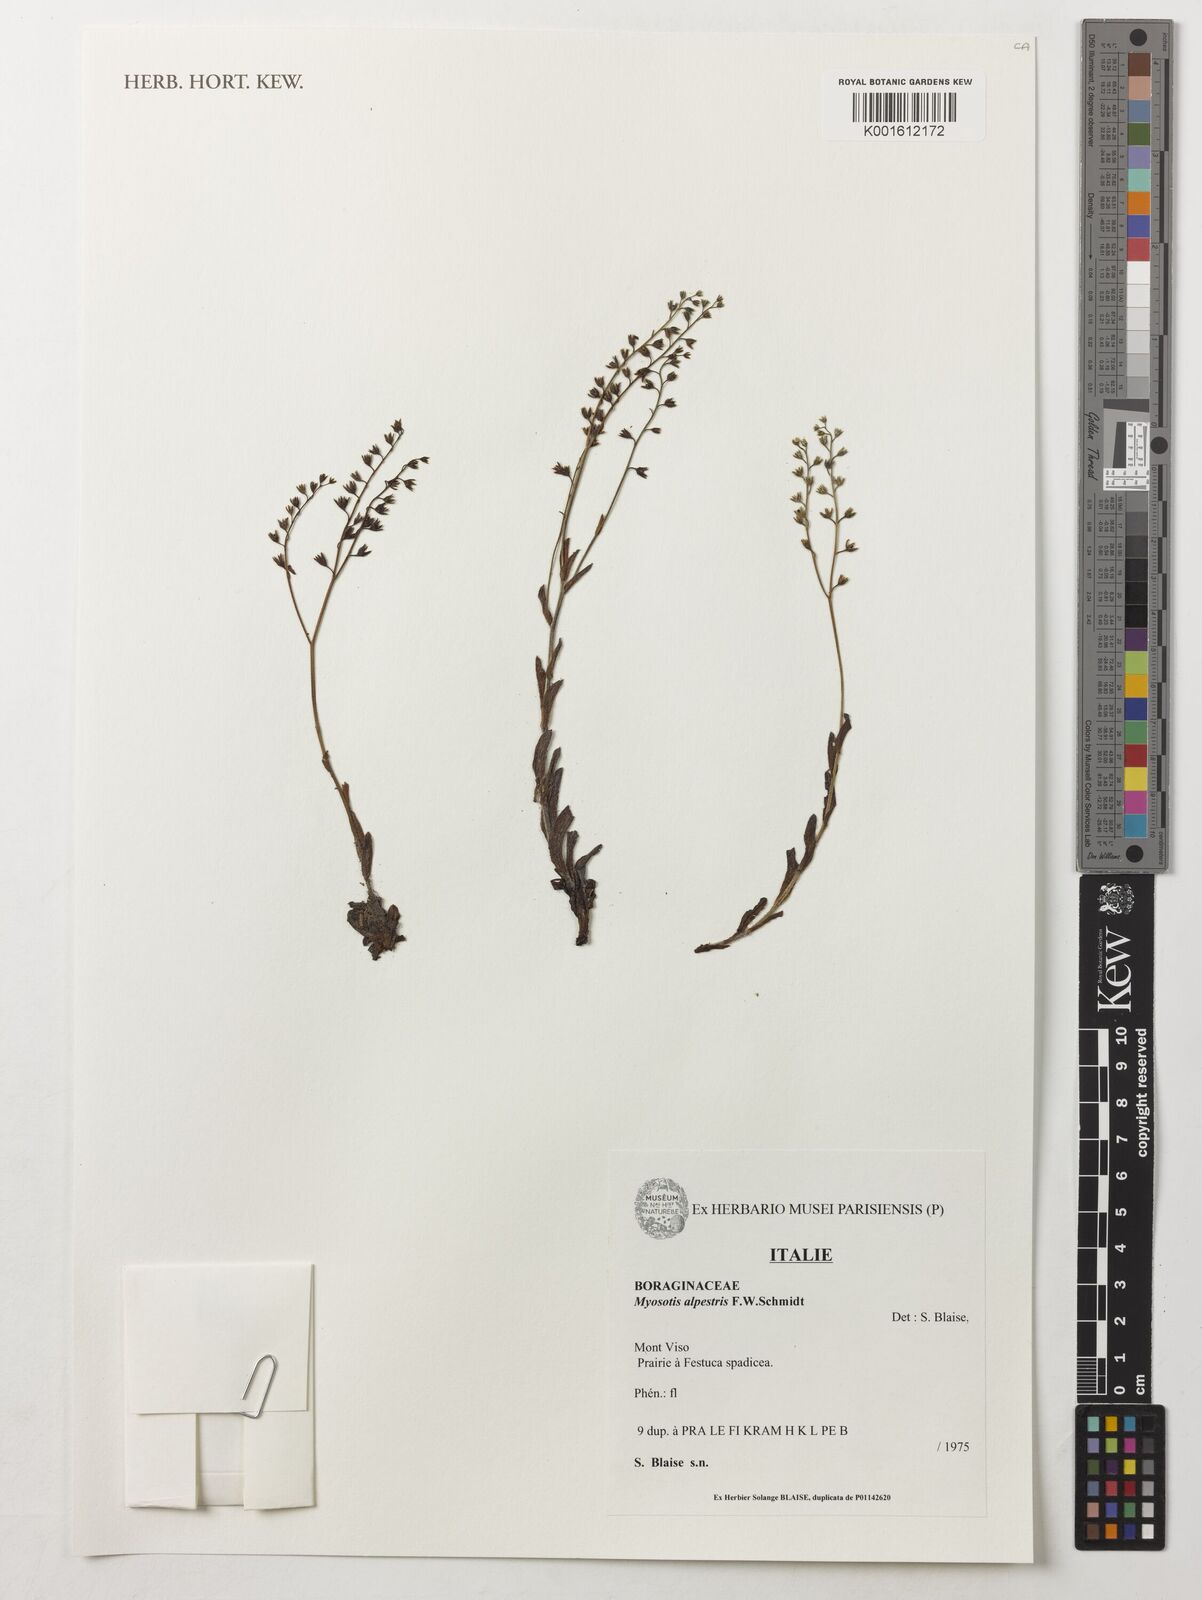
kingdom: Plantae
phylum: Tracheophyta
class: Magnoliopsida
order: Boraginales
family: Boraginaceae
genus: Myosotis
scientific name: Myosotis alpestris
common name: Alpine forget-me-not
